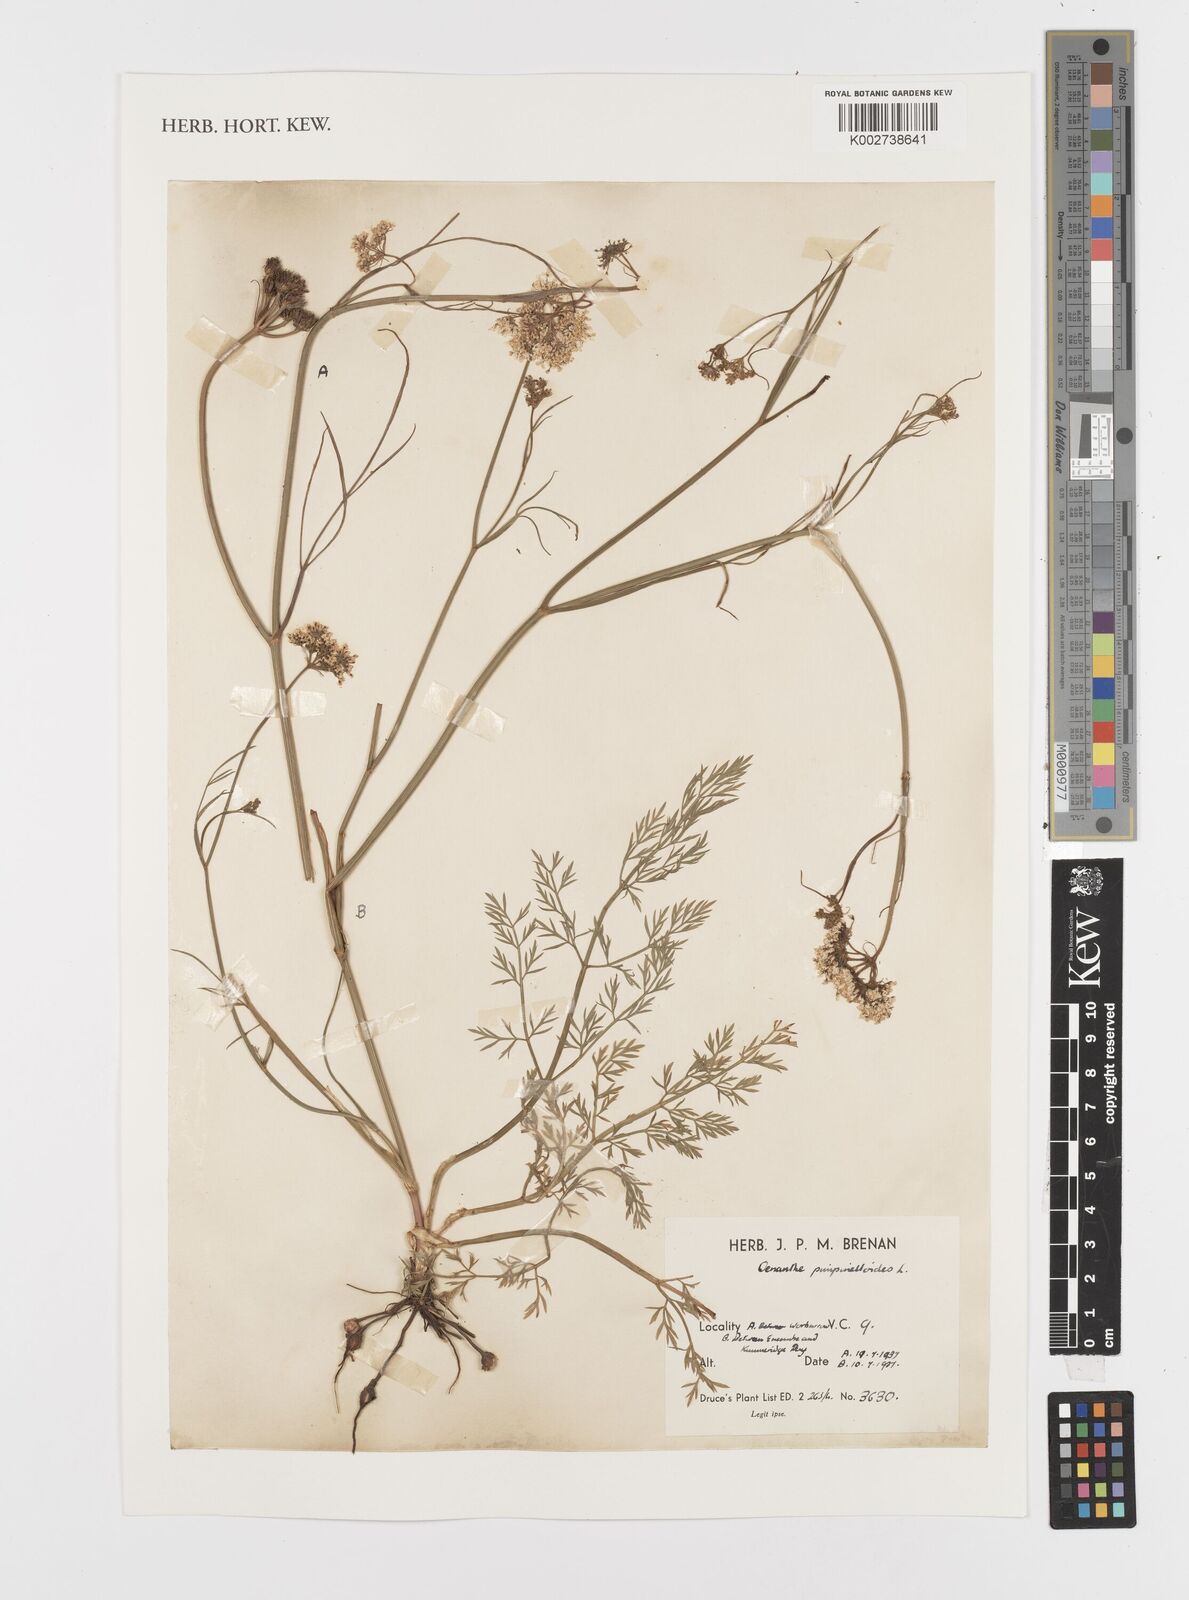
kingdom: Plantae
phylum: Tracheophyta
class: Magnoliopsida
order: Apiales
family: Apiaceae
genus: Oenanthe
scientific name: Oenanthe pimpinelloides
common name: Corky-fruited water-dropwort
